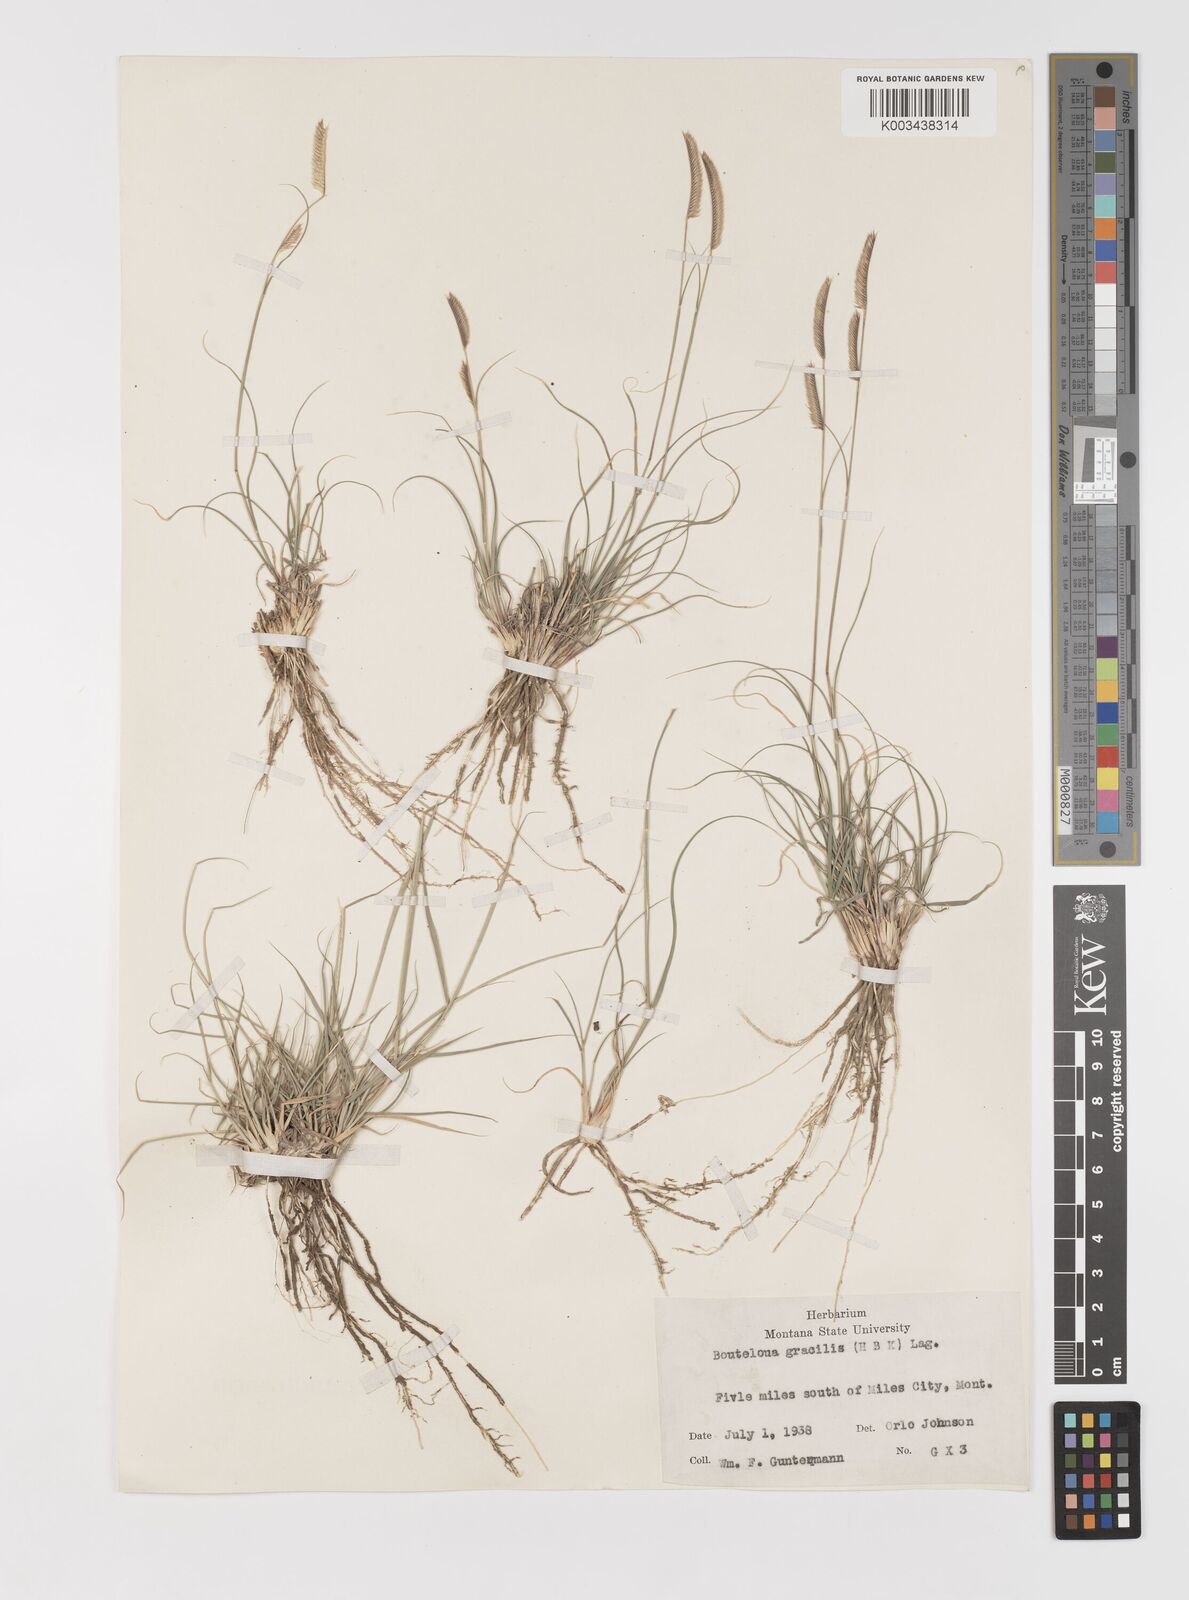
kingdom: Plantae
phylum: Tracheophyta
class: Liliopsida
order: Poales
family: Poaceae
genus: Bouteloua
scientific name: Bouteloua
